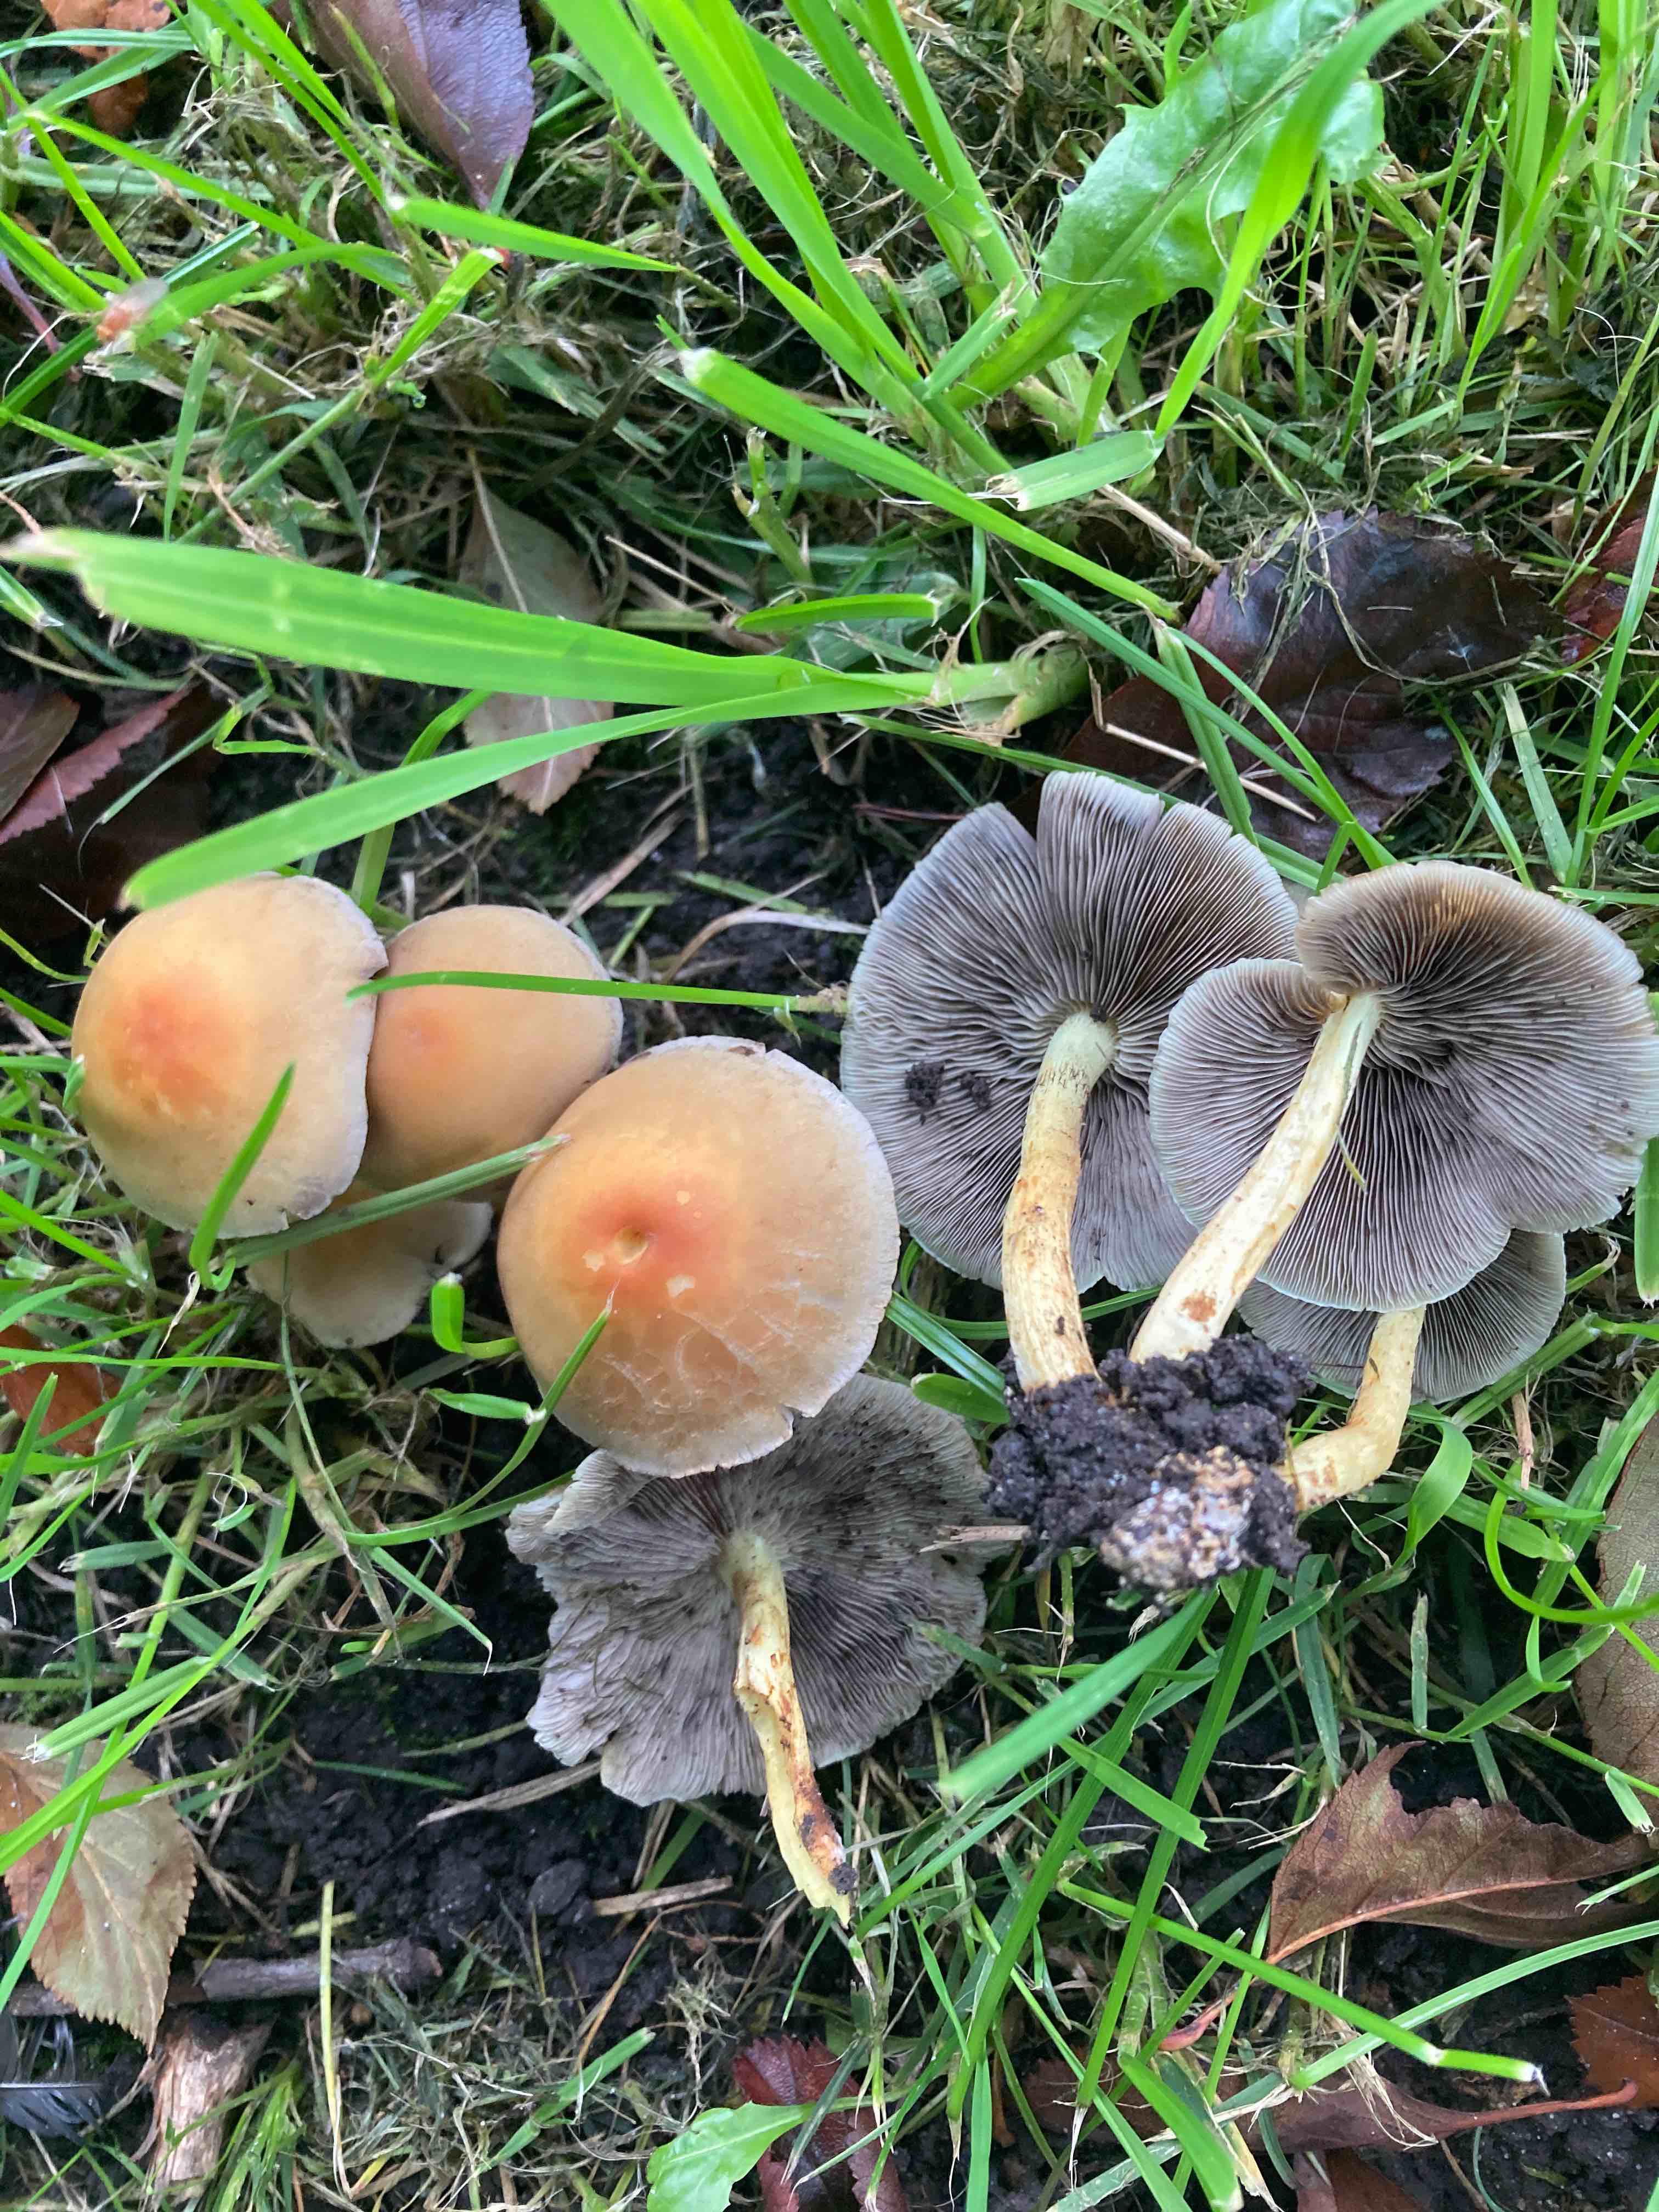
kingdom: Fungi
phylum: Basidiomycota
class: Agaricomycetes
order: Agaricales
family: Strophariaceae
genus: Hypholoma
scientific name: Hypholoma fasciculare
